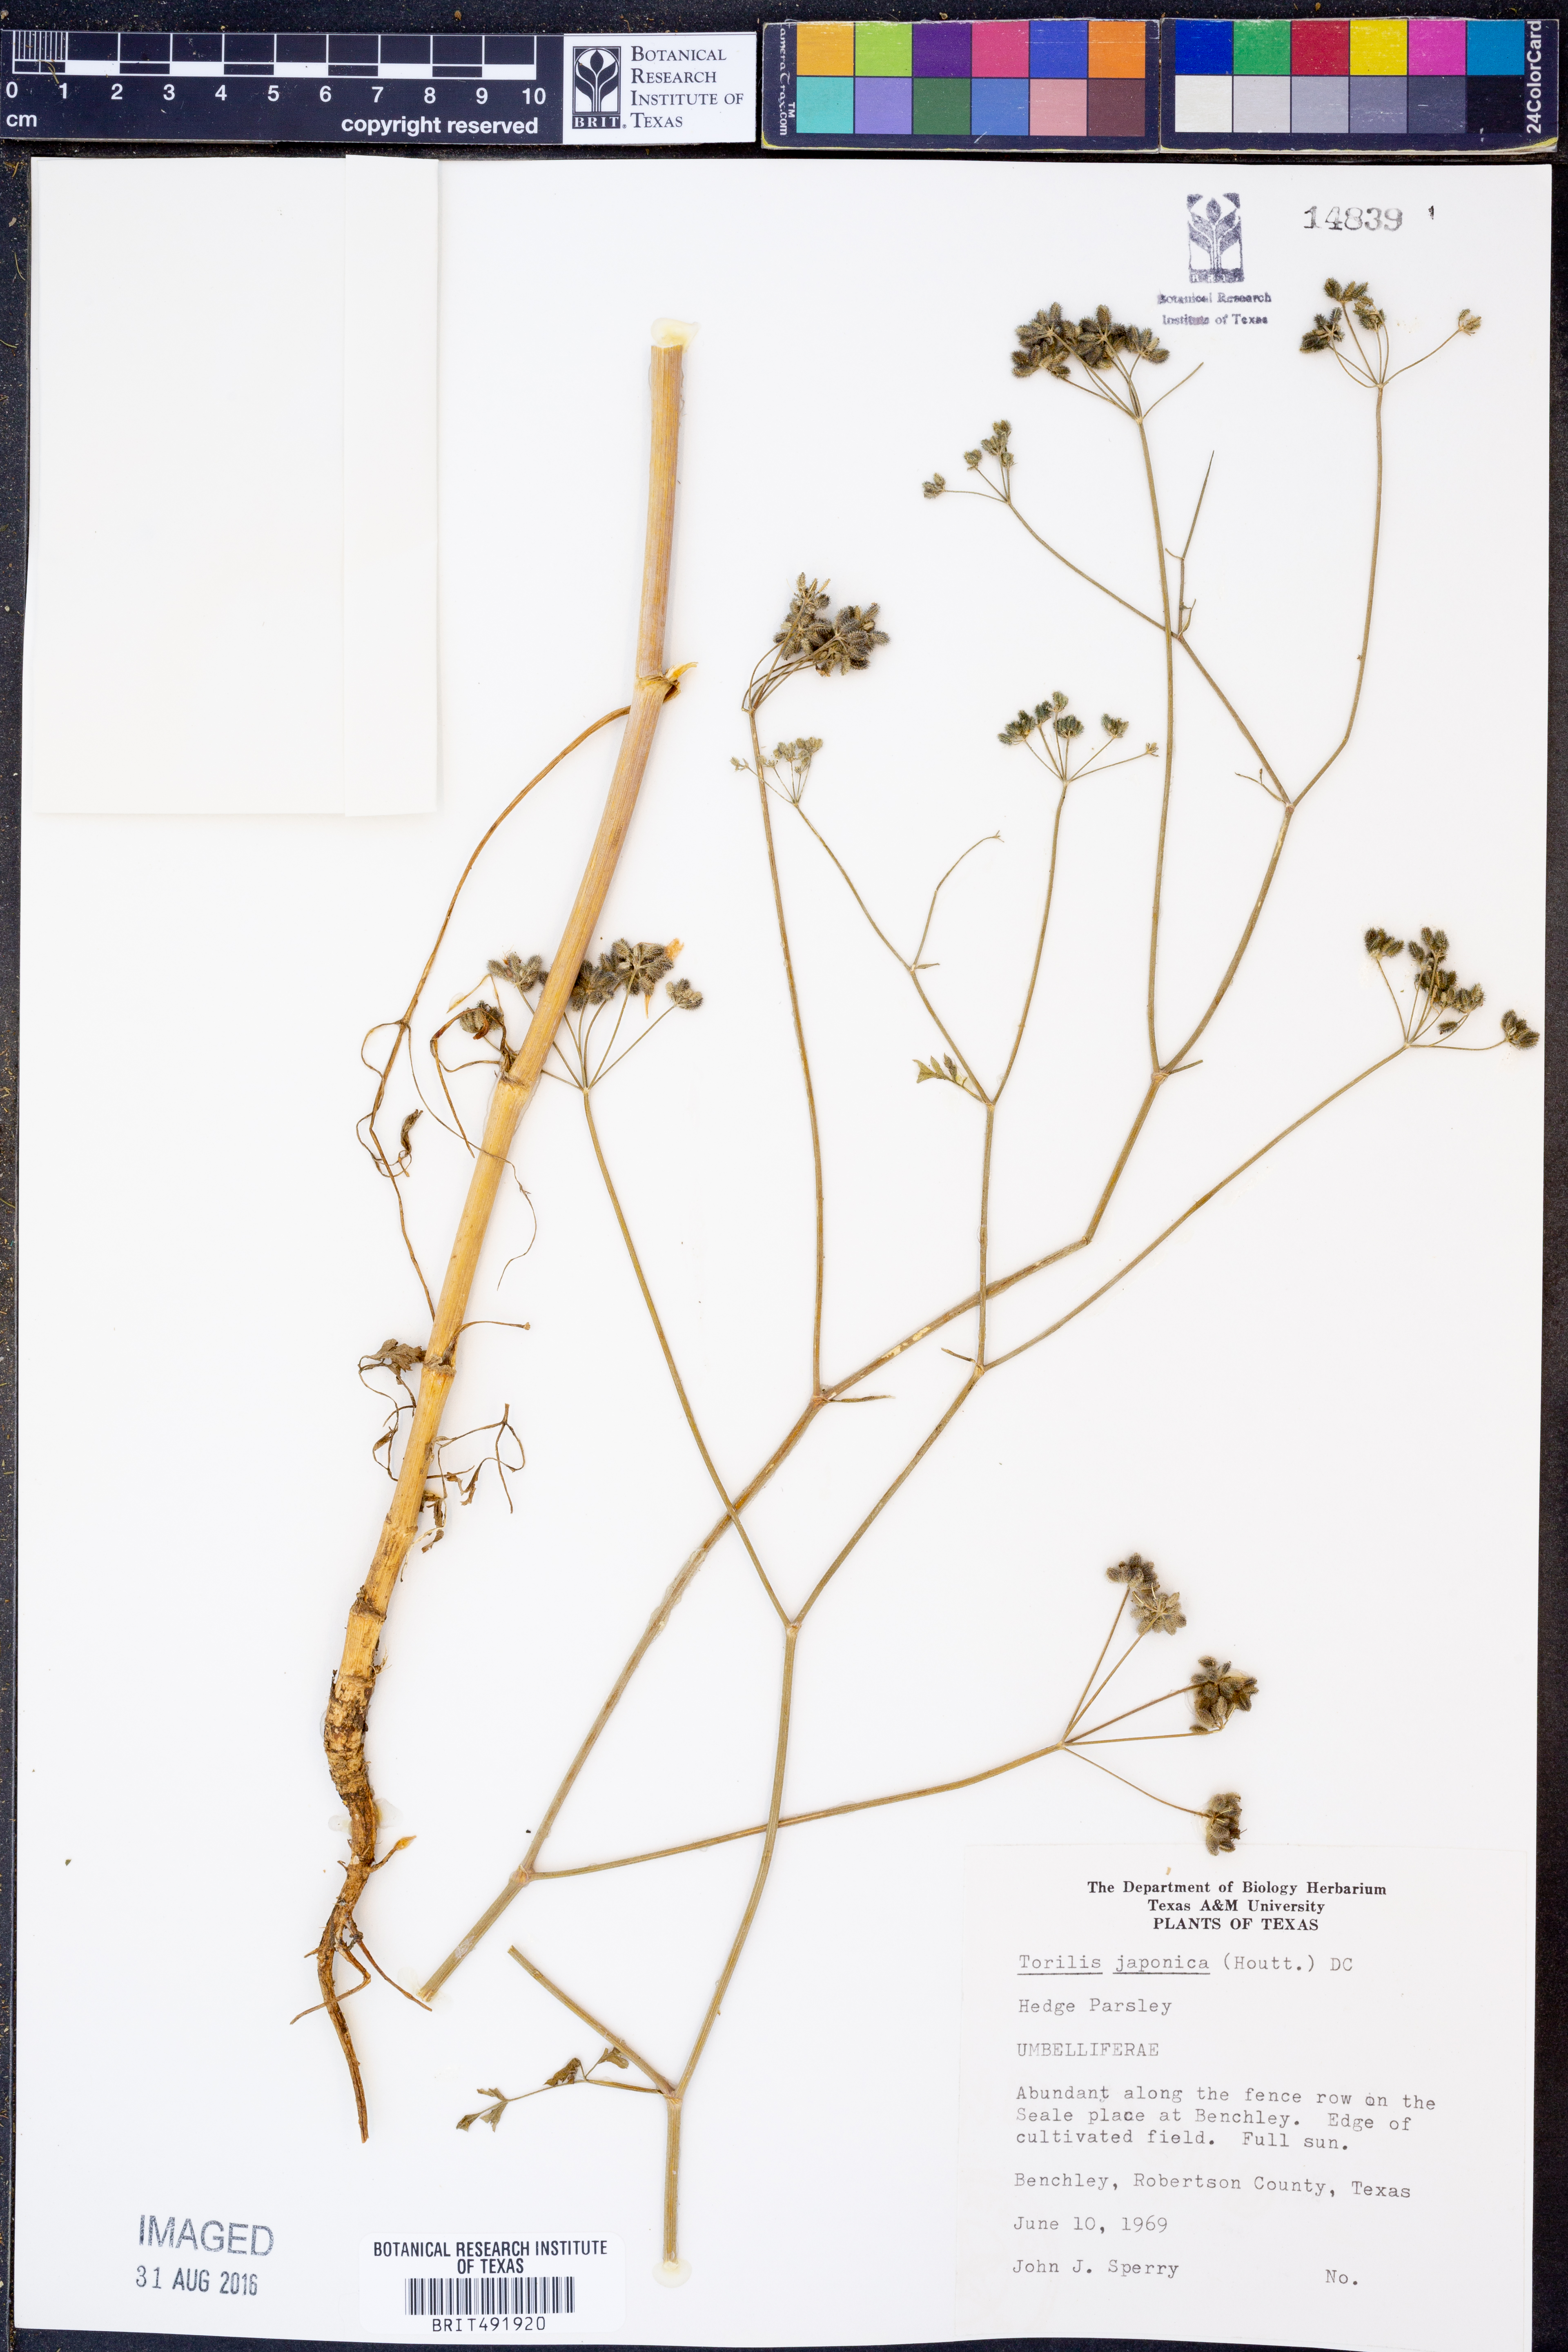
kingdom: Plantae
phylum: Tracheophyta
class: Magnoliopsida
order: Apiales
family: Apiaceae
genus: Torilis
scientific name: Torilis japonica
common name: Upright hedge-parsley
